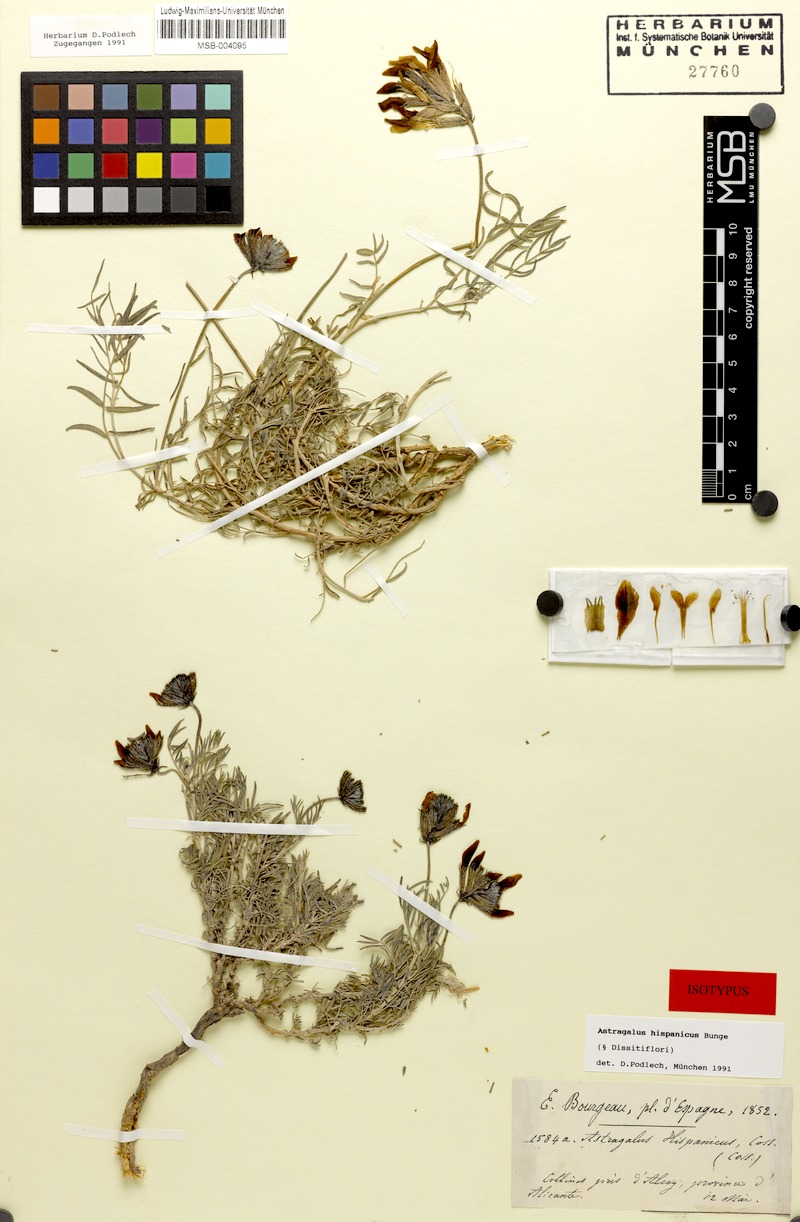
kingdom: Plantae
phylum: Tracheophyta
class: Magnoliopsida
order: Fabales
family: Fabaceae
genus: Astragalus
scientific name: Astragalus hispanicus
